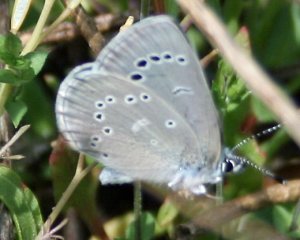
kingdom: Animalia
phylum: Arthropoda
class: Insecta
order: Lepidoptera
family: Lycaenidae
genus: Glaucopsyche
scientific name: Glaucopsyche lygdamus
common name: Silvery Blue
